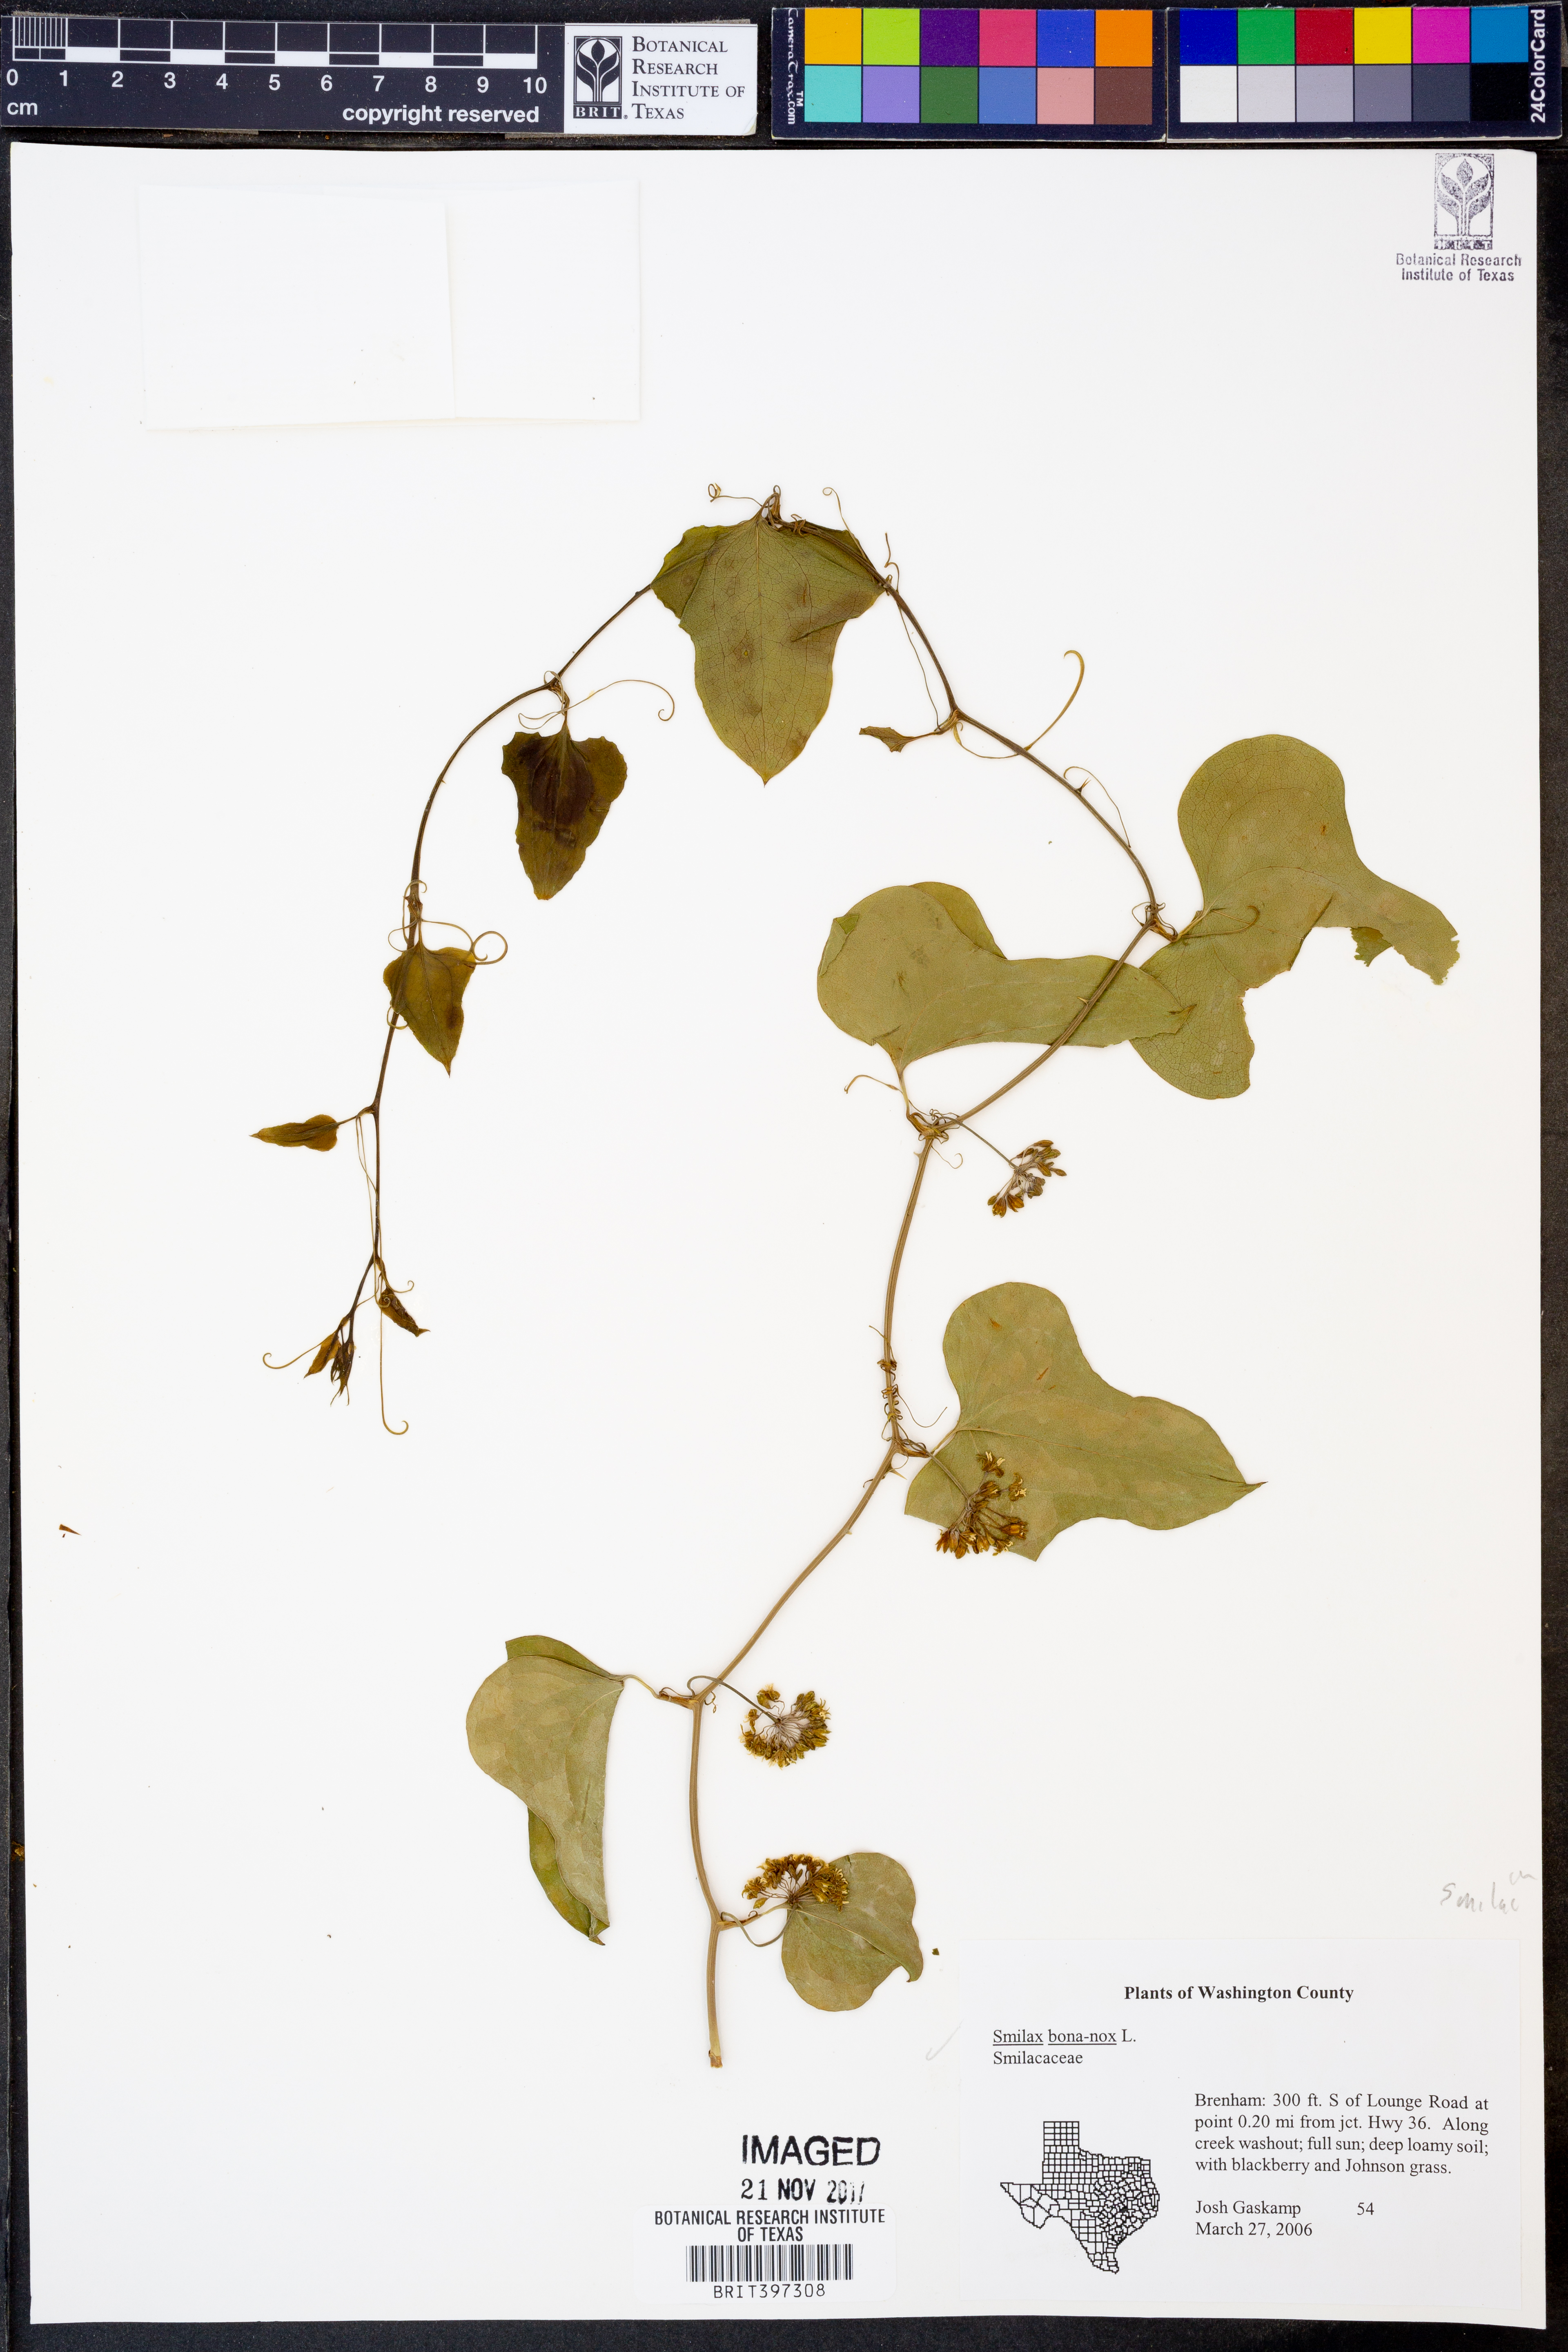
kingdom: Plantae
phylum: Tracheophyta
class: Liliopsida
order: Liliales
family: Smilacaceae
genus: Smilax
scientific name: Smilax bona-nox
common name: Catbrier
